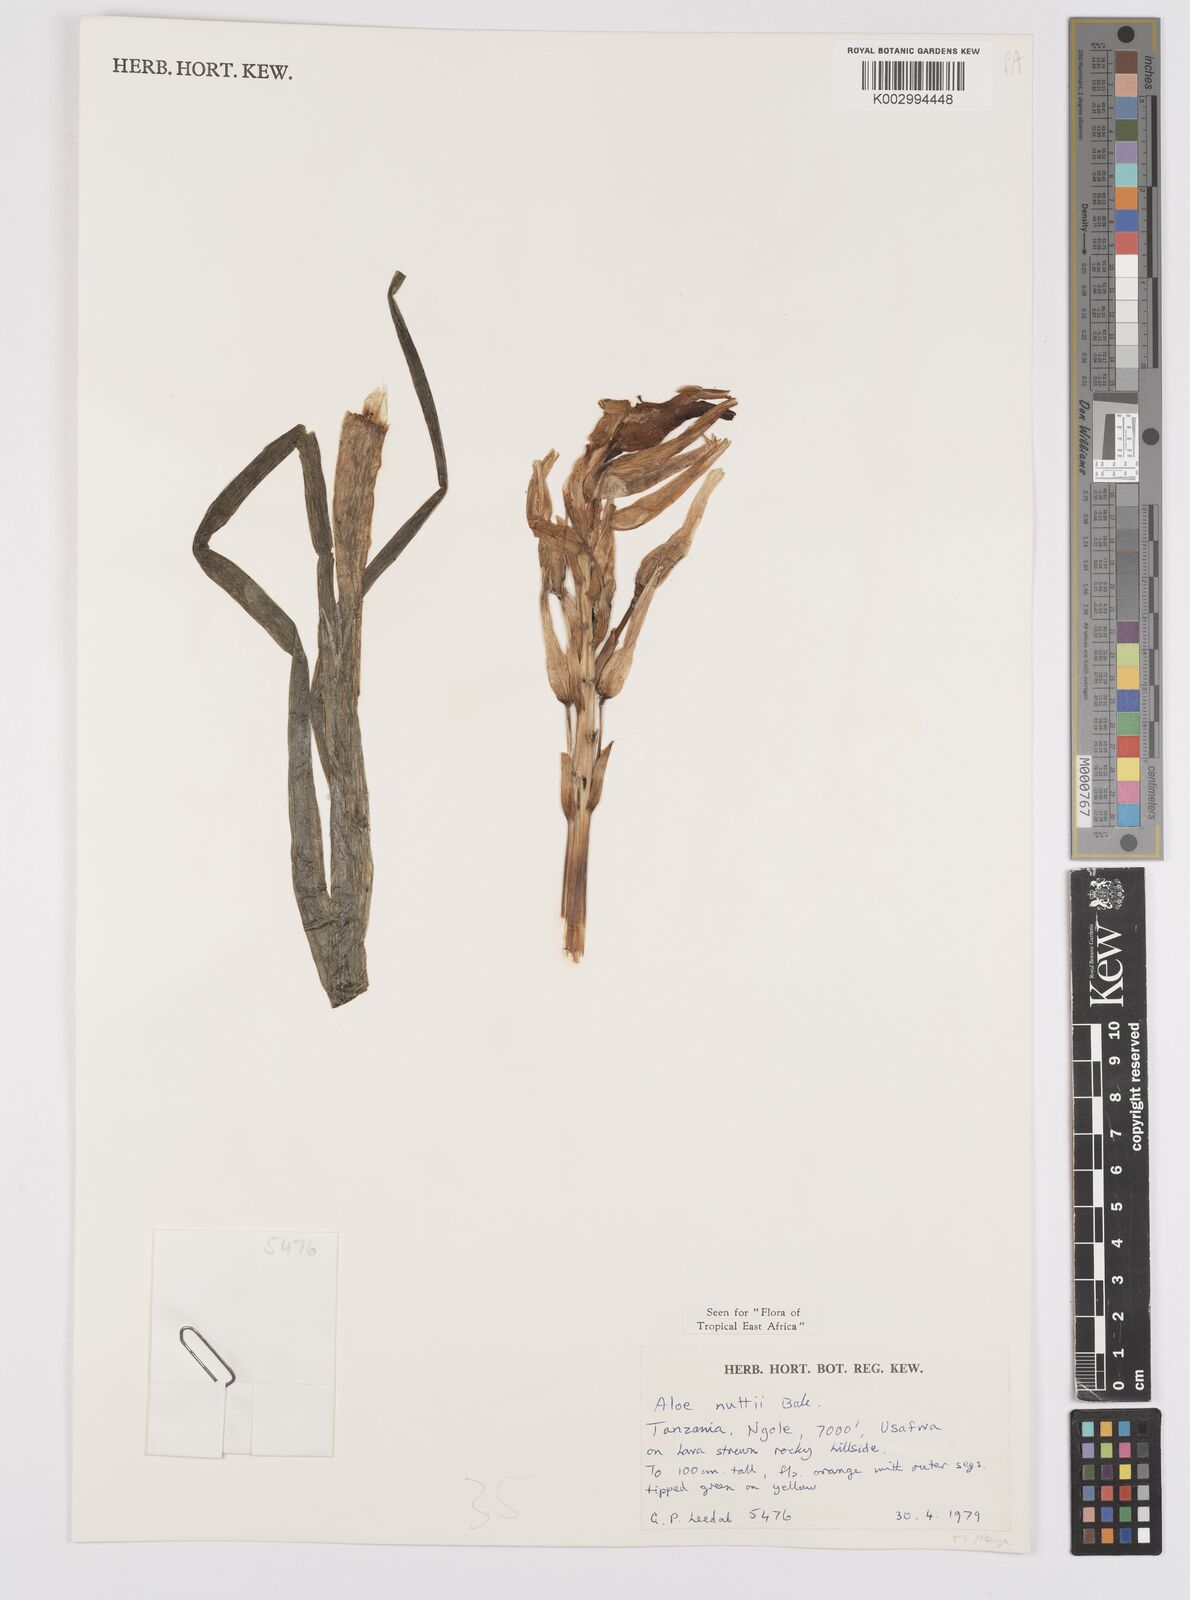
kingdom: Plantae
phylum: Tracheophyta
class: Liliopsida
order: Asparagales
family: Asphodelaceae
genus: Aloe
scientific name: Aloe nuttii
